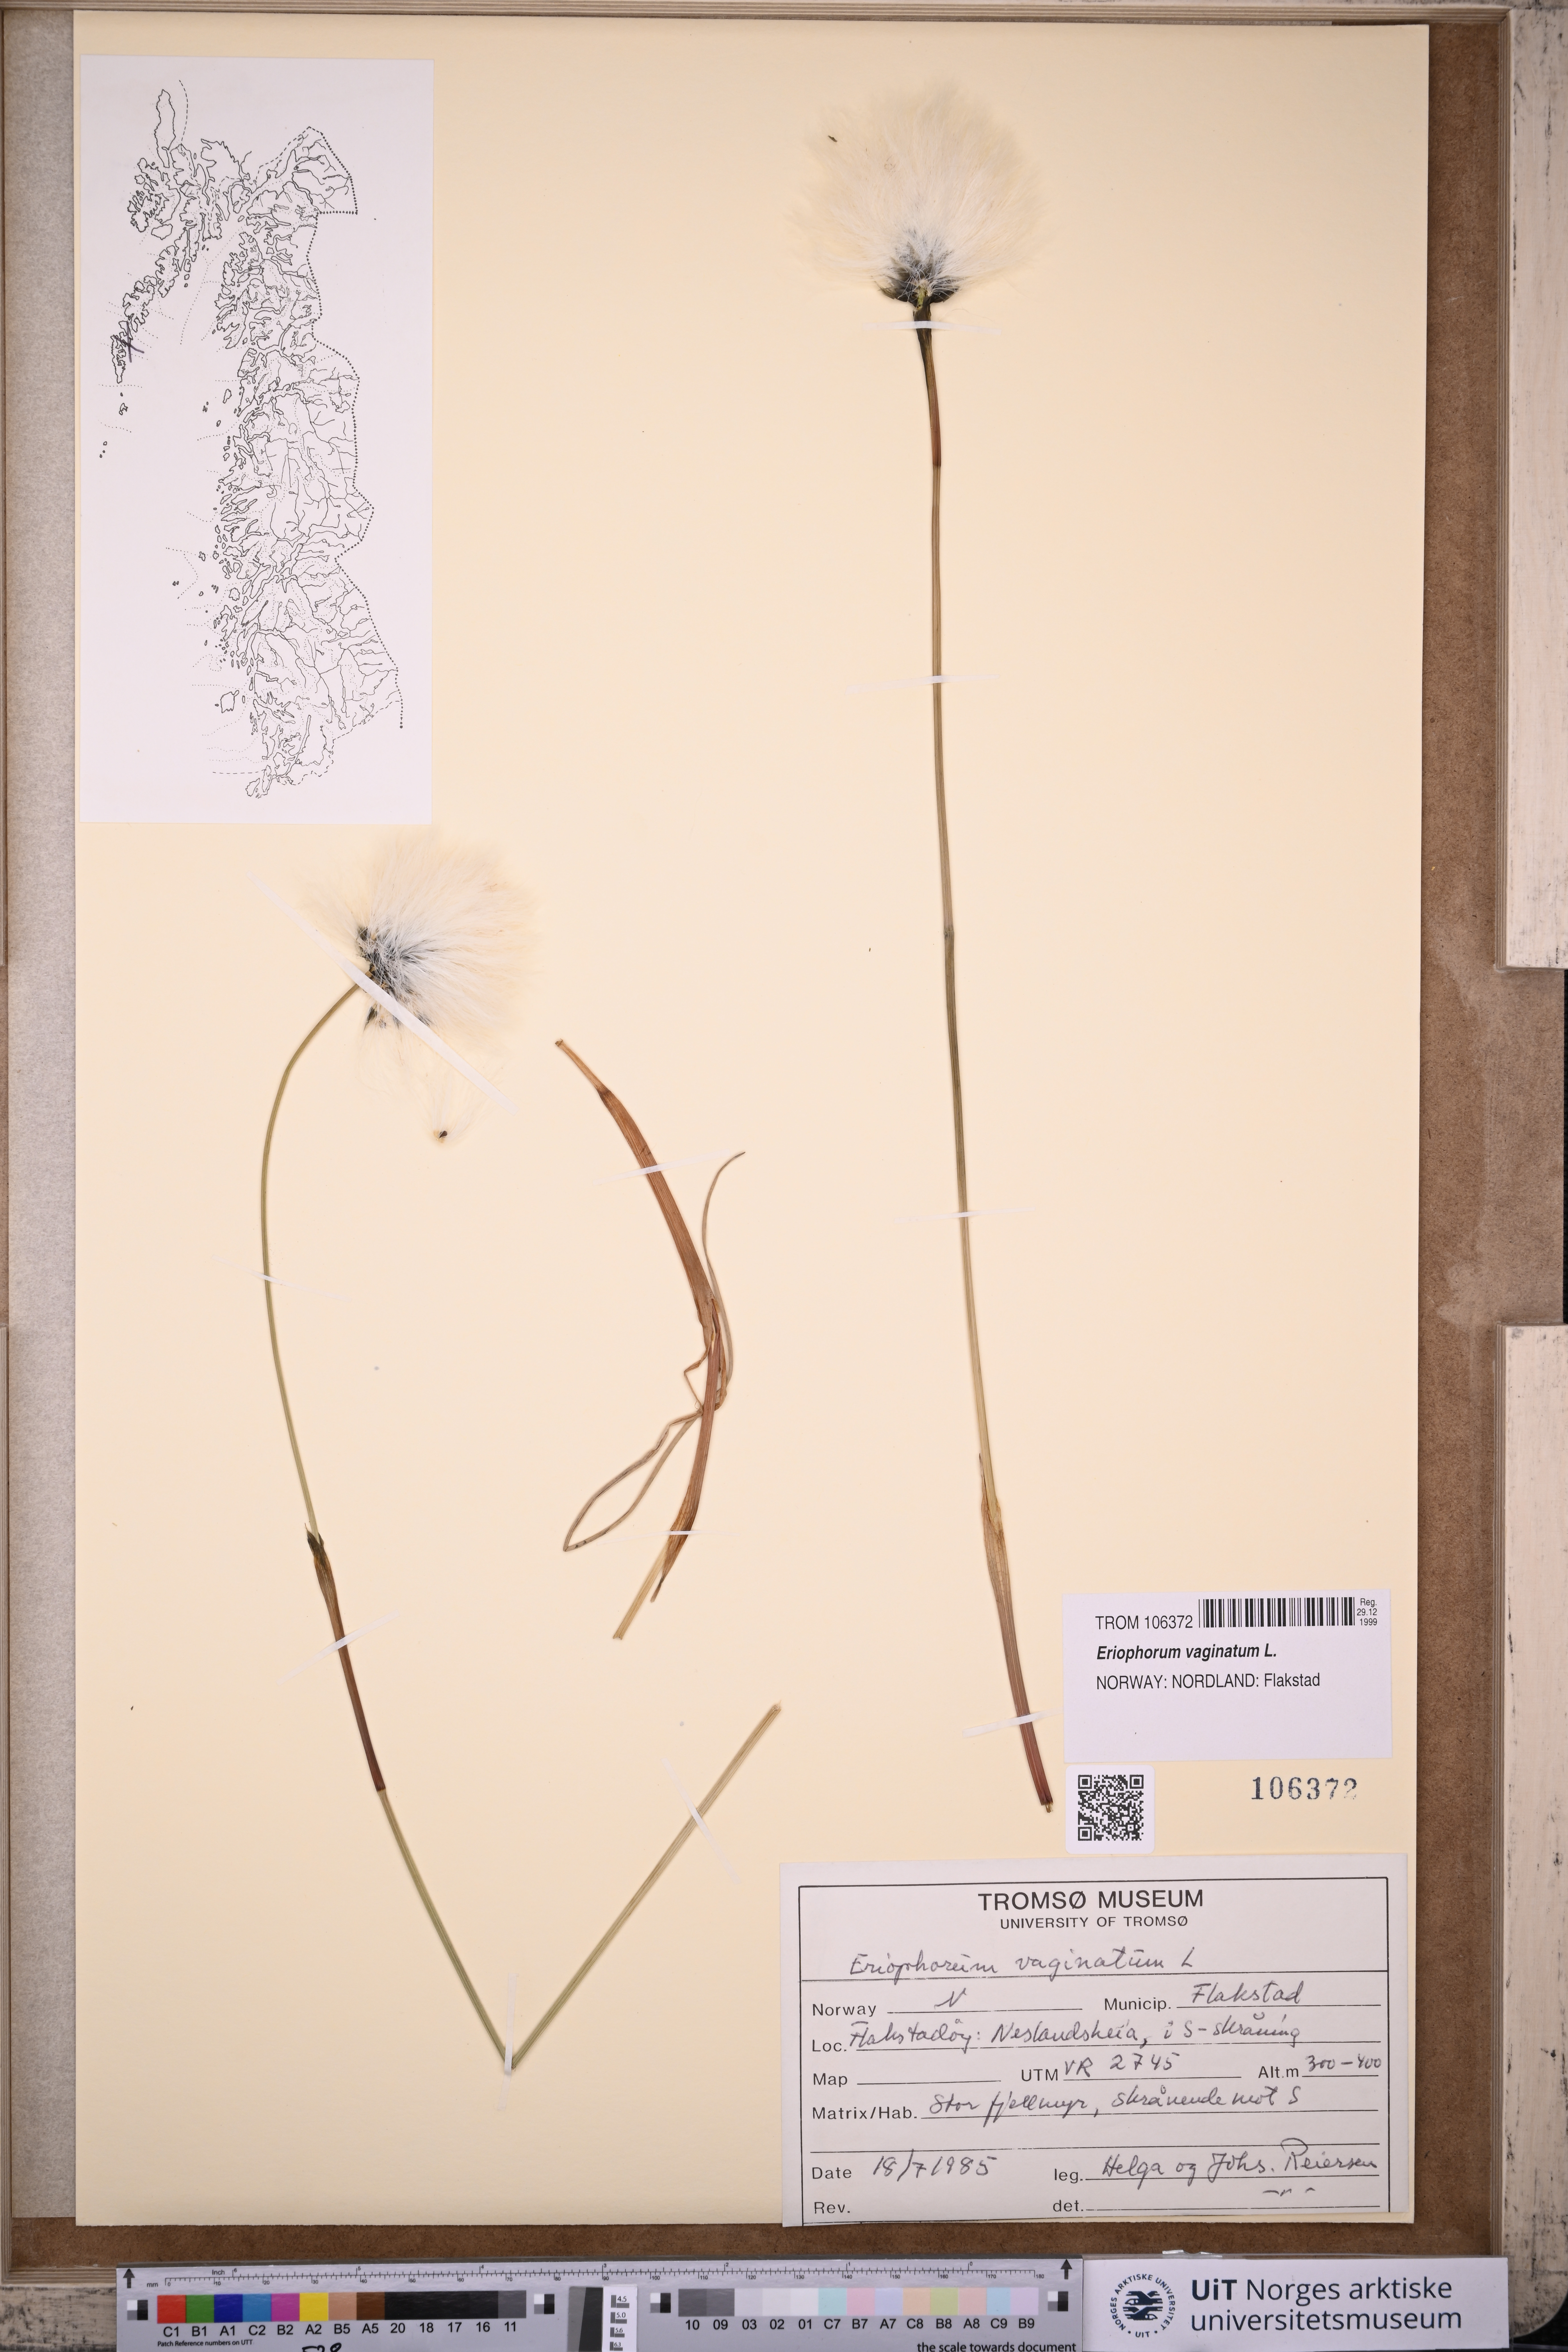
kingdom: Plantae
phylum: Tracheophyta
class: Liliopsida
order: Poales
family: Cyperaceae
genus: Eriophorum
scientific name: Eriophorum vaginatum
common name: Hare's-tail cottongrass
